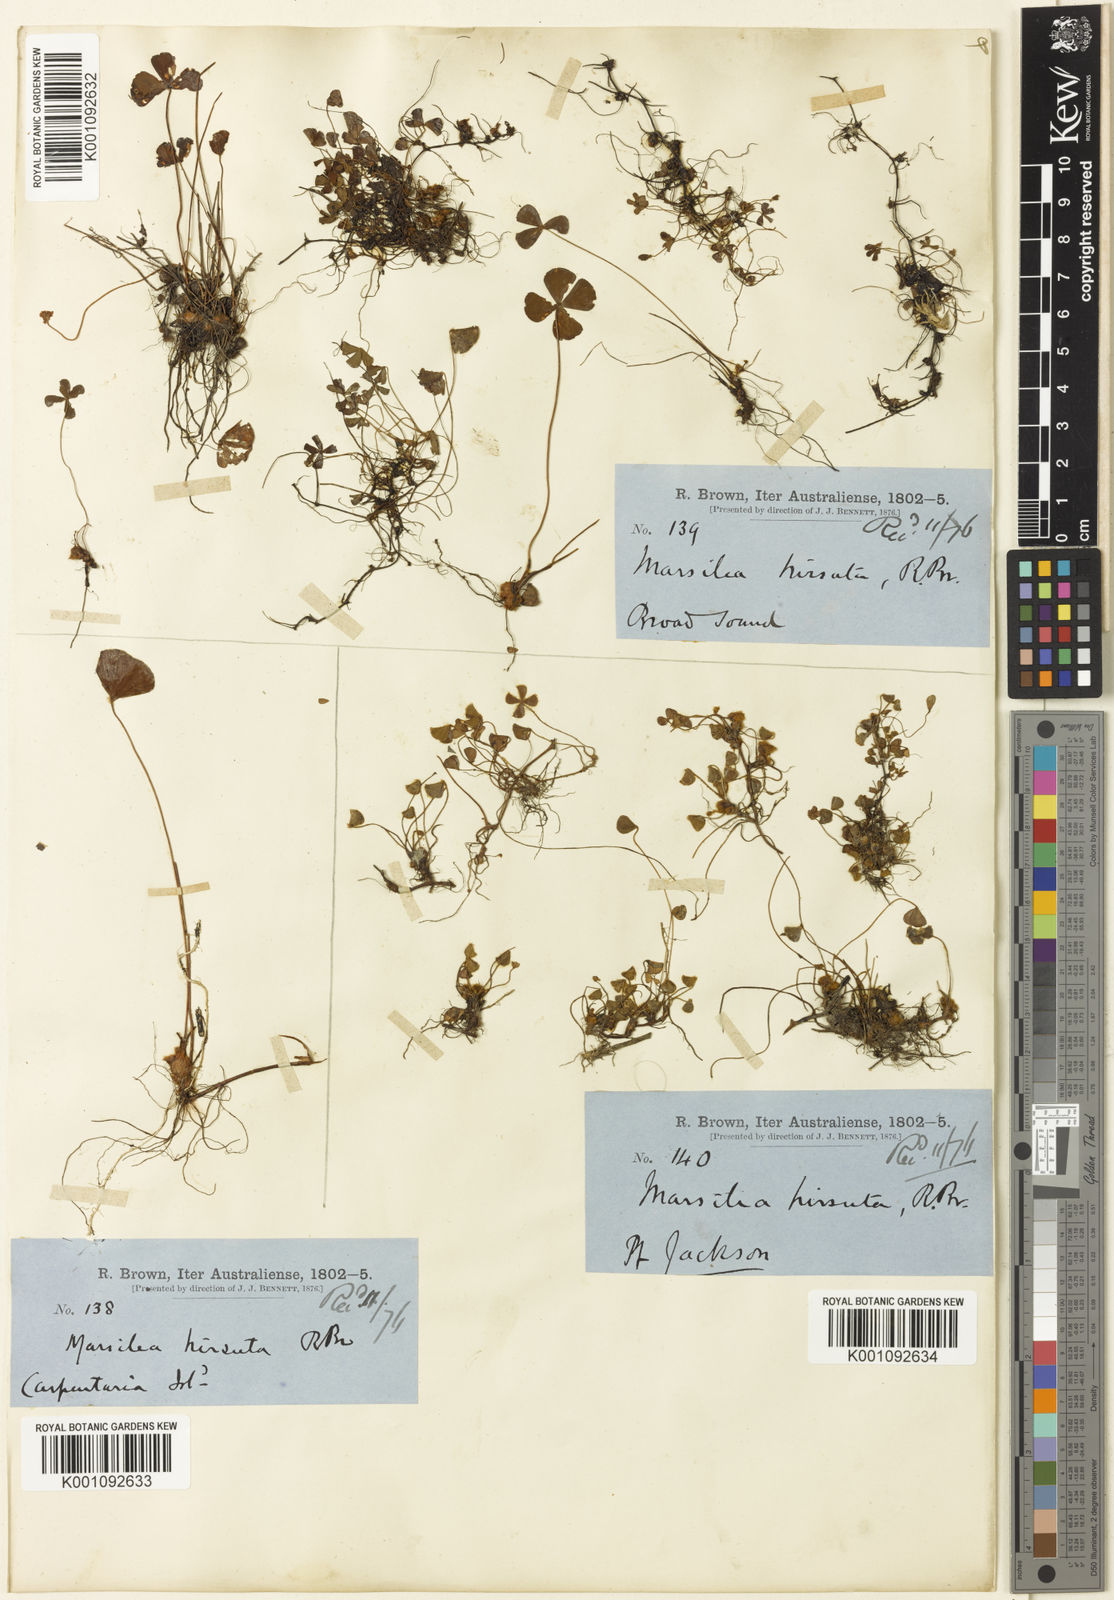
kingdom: Plantae
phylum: Tracheophyta
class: Polypodiopsida
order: Salviniales
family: Marsileaceae
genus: Marsilea
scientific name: Marsilea hirsuta
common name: Rough waterclover
